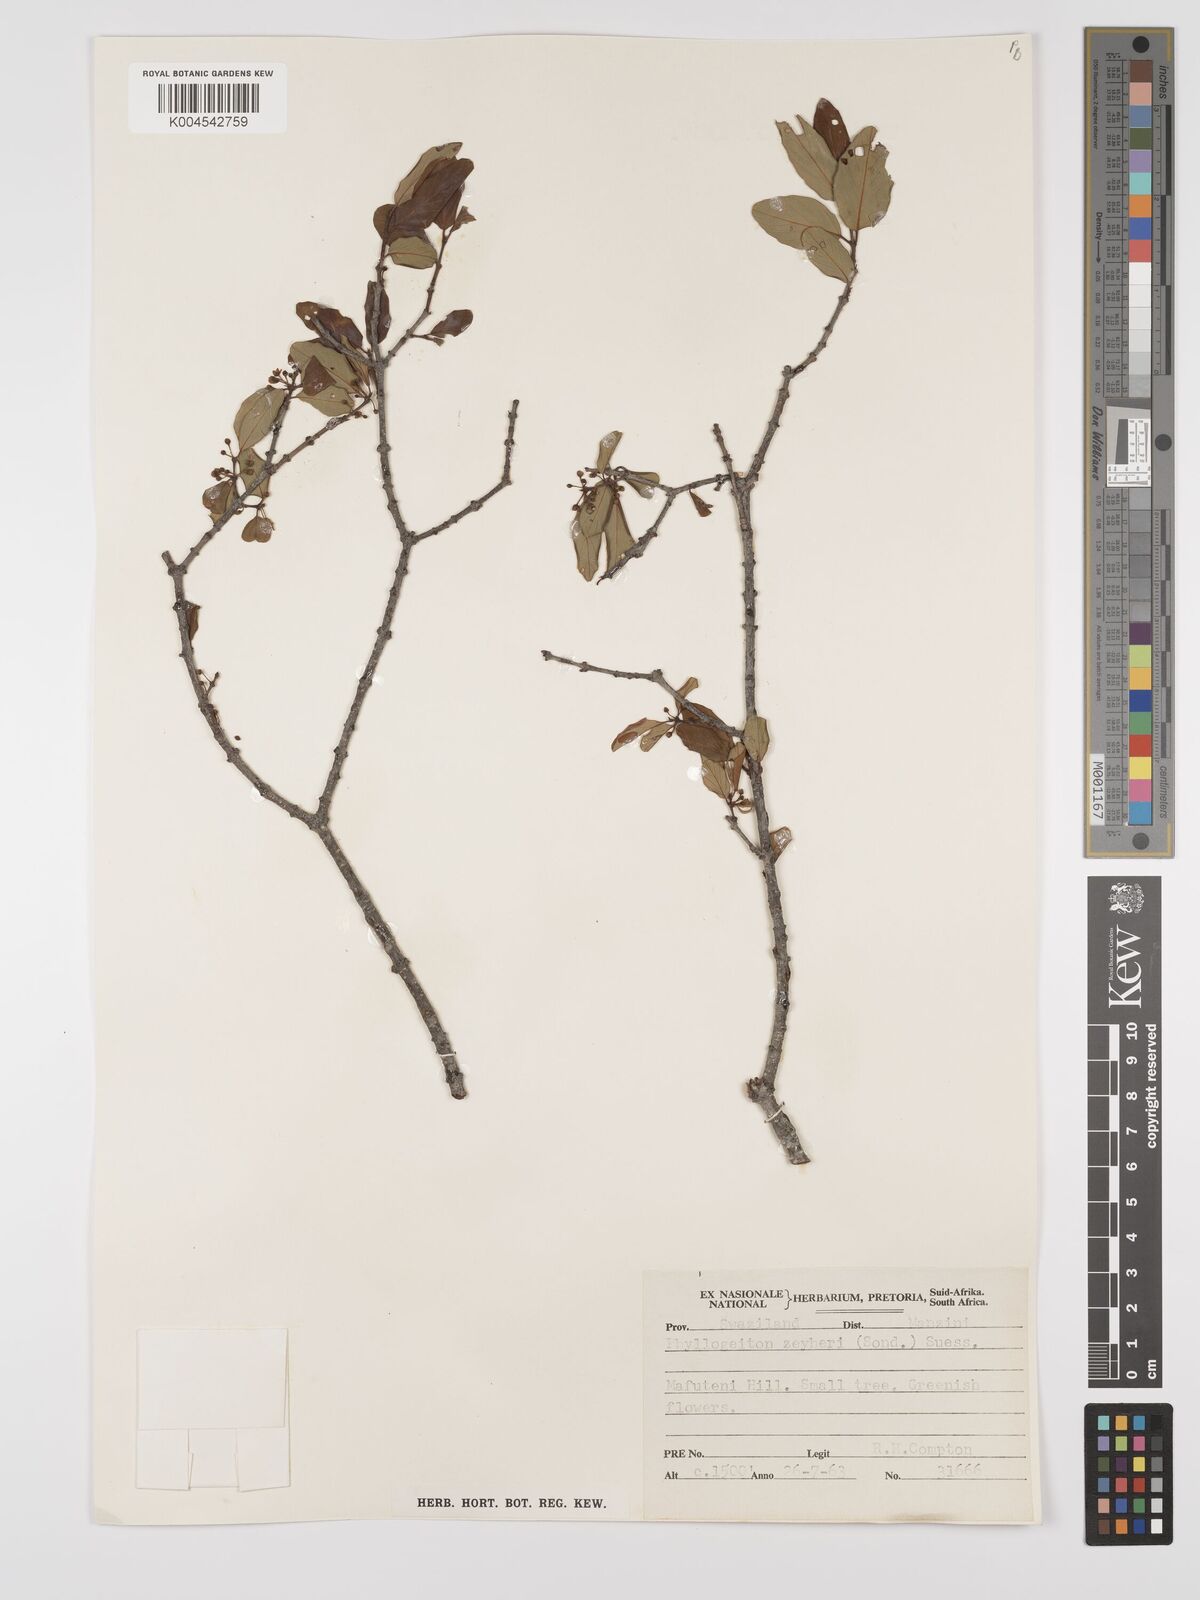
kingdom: Plantae
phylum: Tracheophyta
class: Magnoliopsida
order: Rosales
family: Rhamnaceae
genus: Phyllogeiton
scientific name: Phyllogeiton zeyheri
